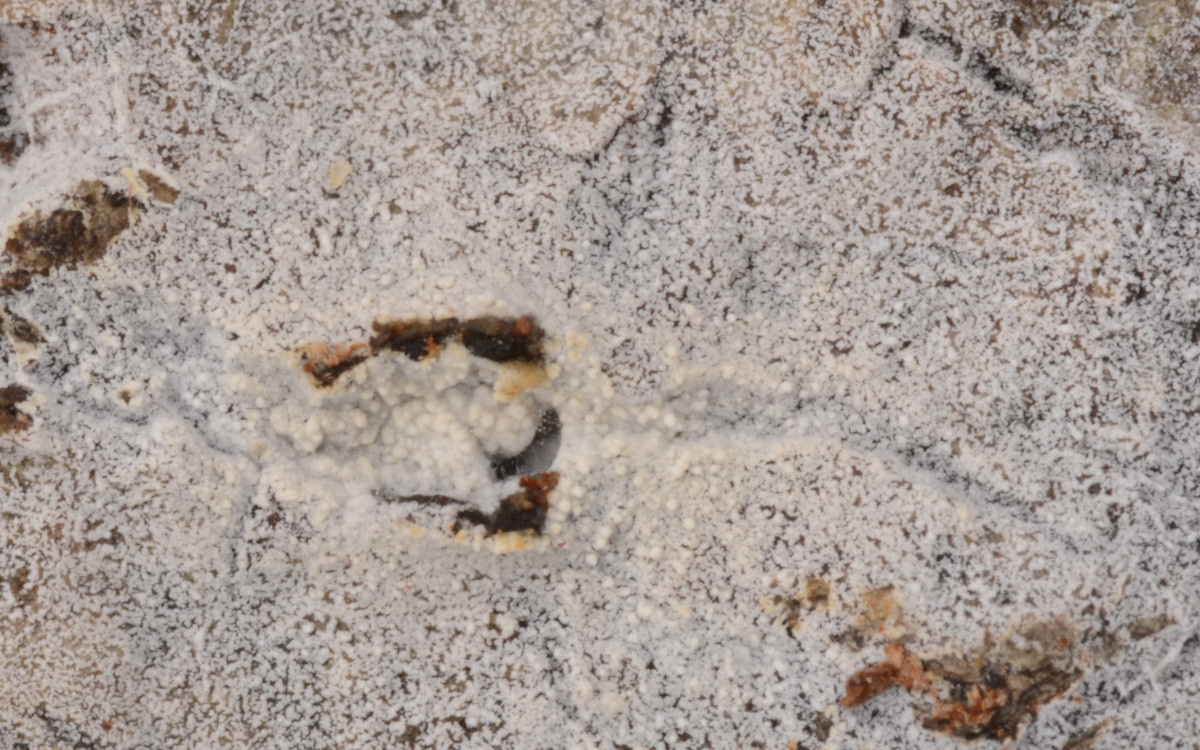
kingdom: Fungi
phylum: Basidiomycota
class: Agaricomycetes
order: Cantharellales
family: Hydnaceae
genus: Sistotrema
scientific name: Sistotrema brinkmannii
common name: bønnesporet kroneskorpe
